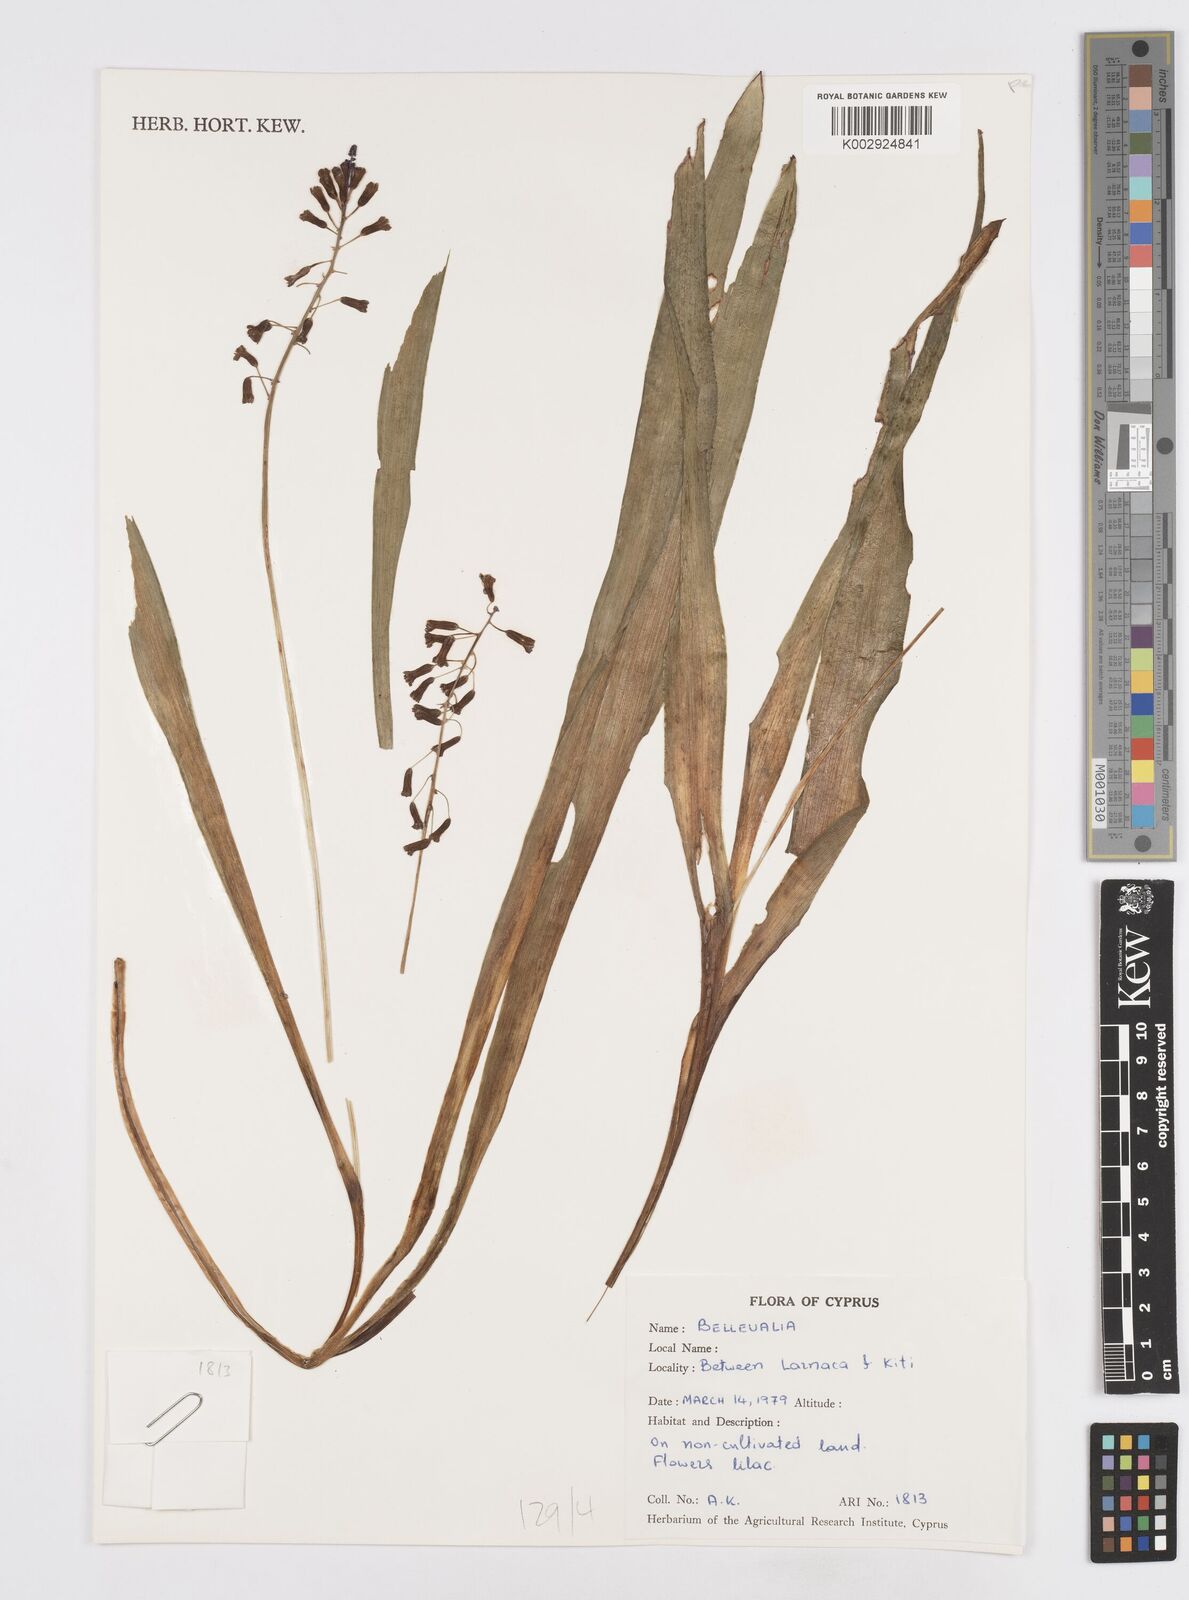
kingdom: Plantae
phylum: Tracheophyta
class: Liliopsida
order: Asparagales
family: Asparagaceae
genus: Bellevalia
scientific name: Bellevalia
